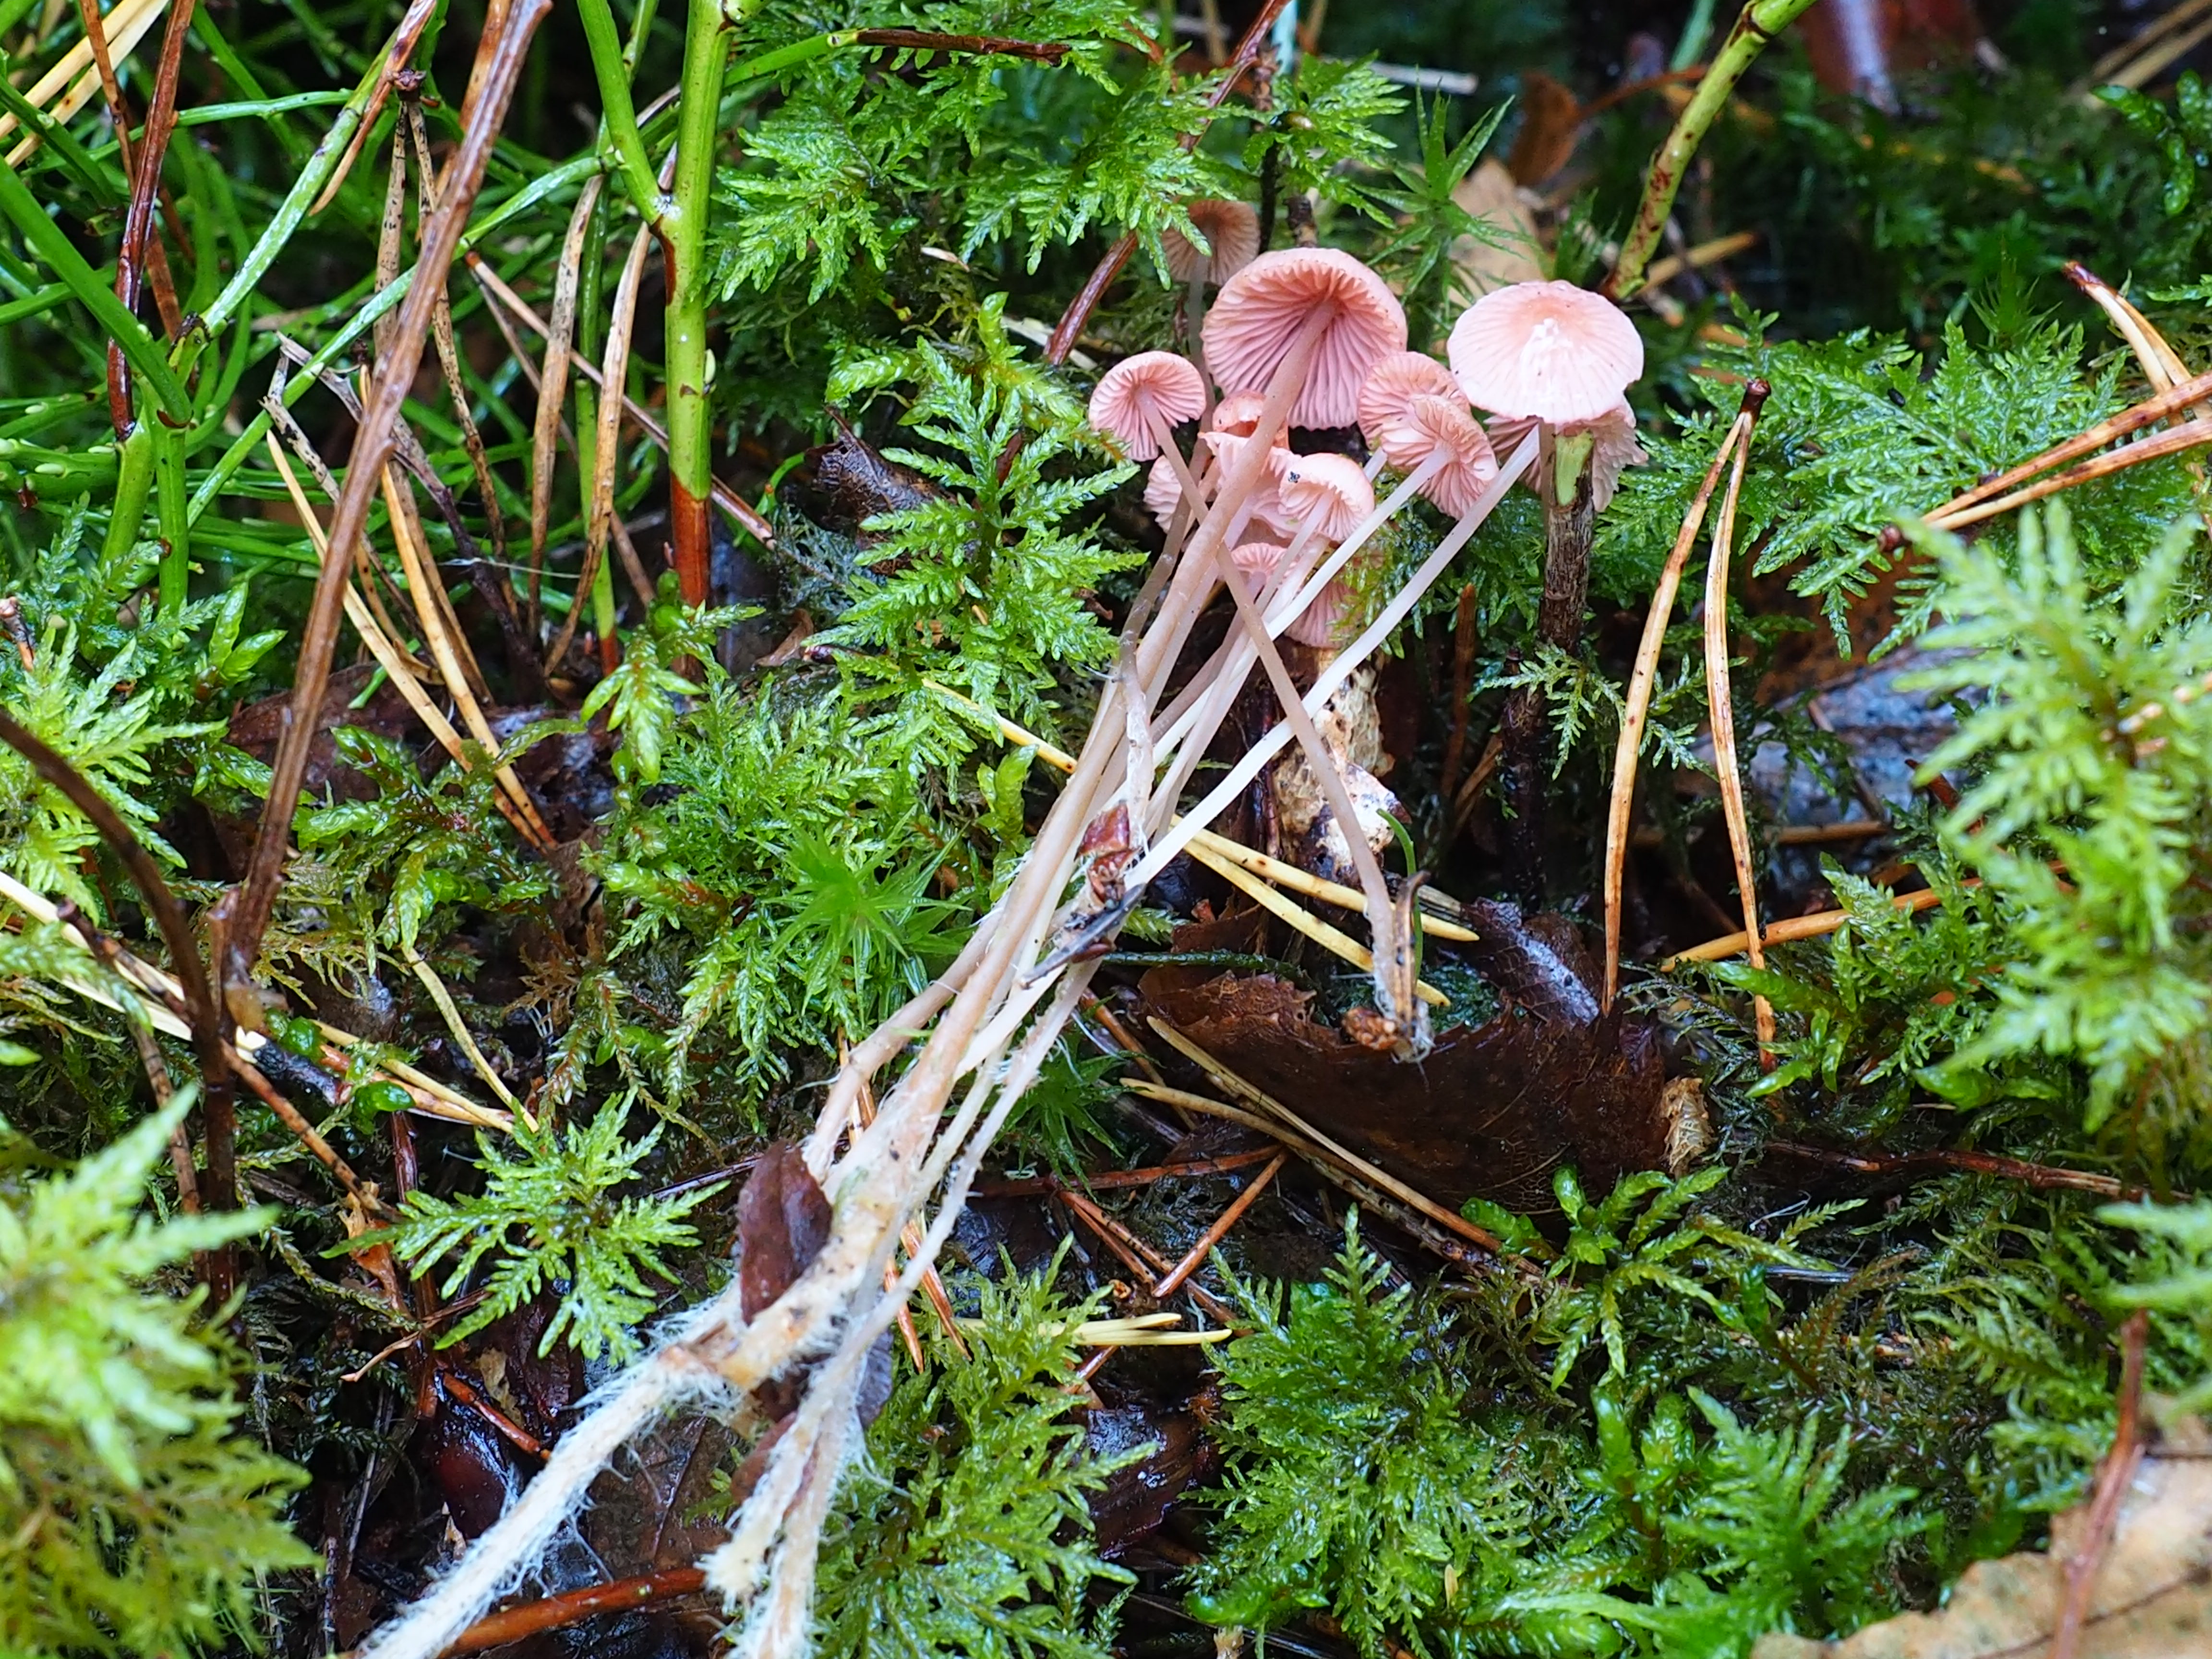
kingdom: Fungi
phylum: Basidiomycota
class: Agaricomycetes
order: Agaricales
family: Mycenaceae
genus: Mycena
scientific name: Mycena rosella
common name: Pink bonnet
